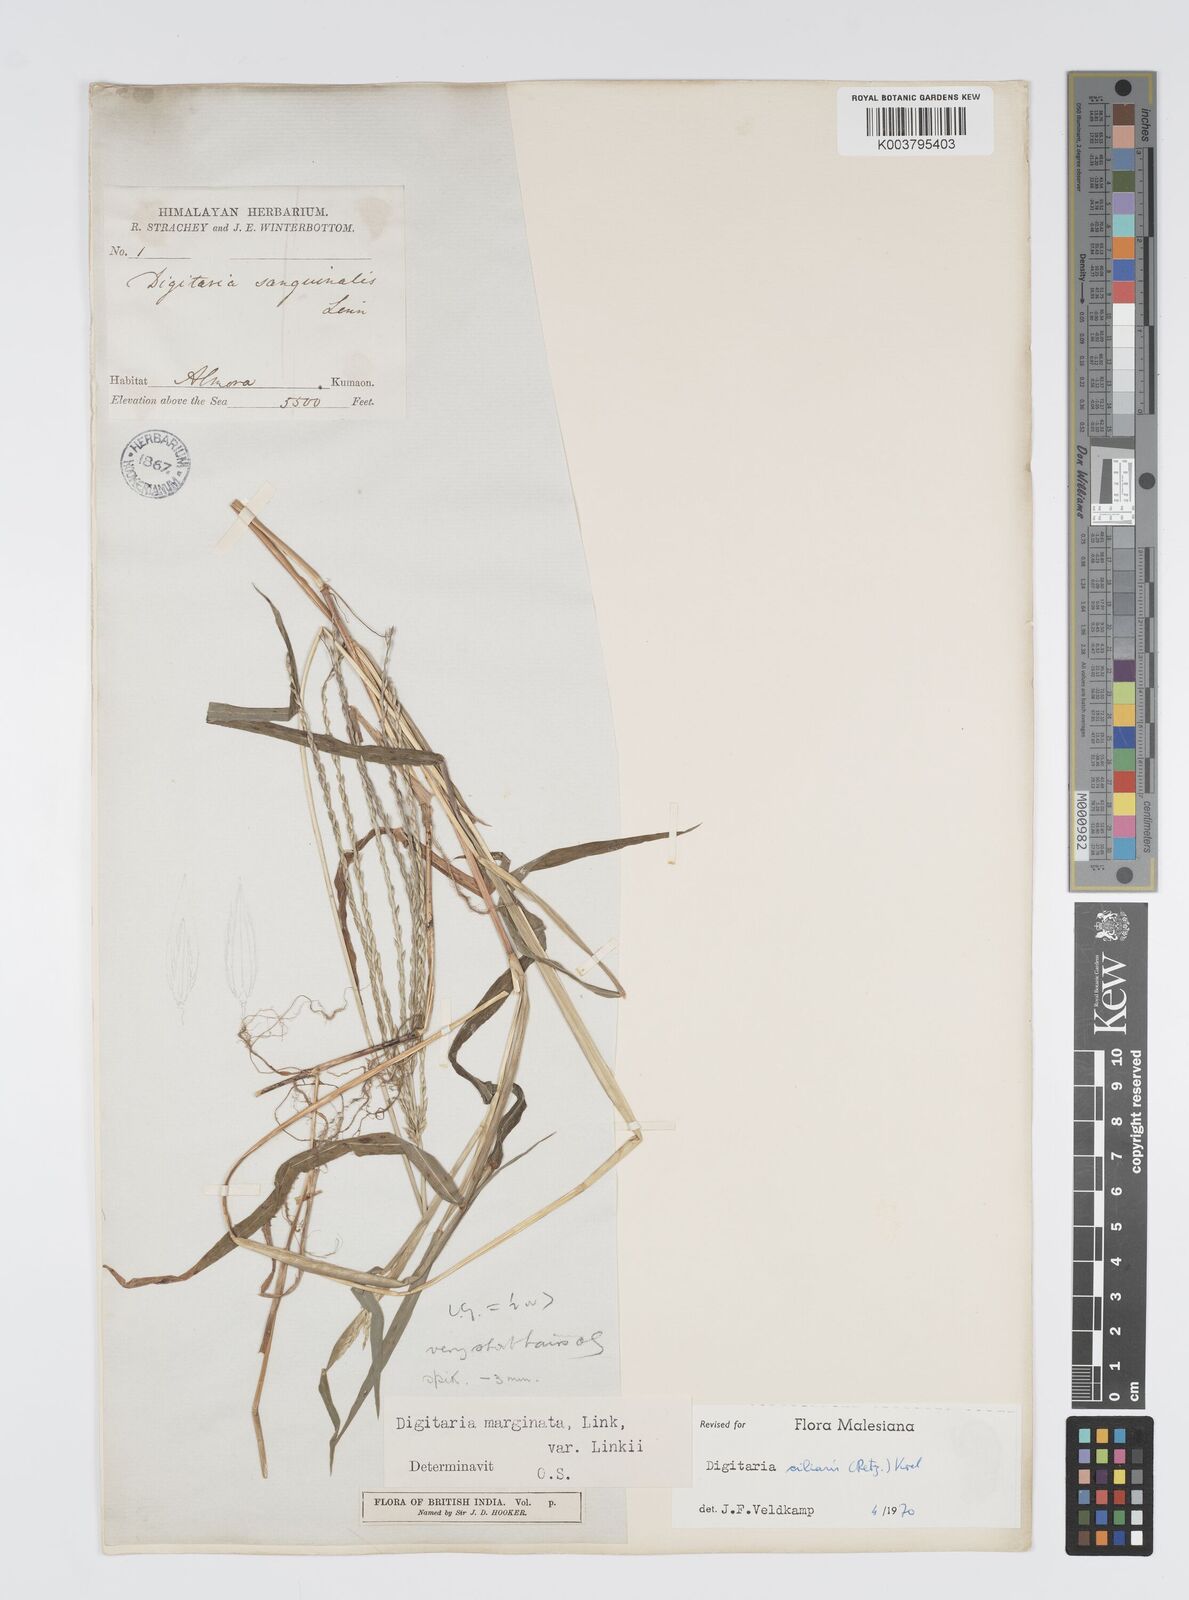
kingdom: Plantae
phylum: Tracheophyta
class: Liliopsida
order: Poales
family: Poaceae
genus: Digitaria
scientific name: Digitaria ciliaris
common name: Tropical finger-grass
